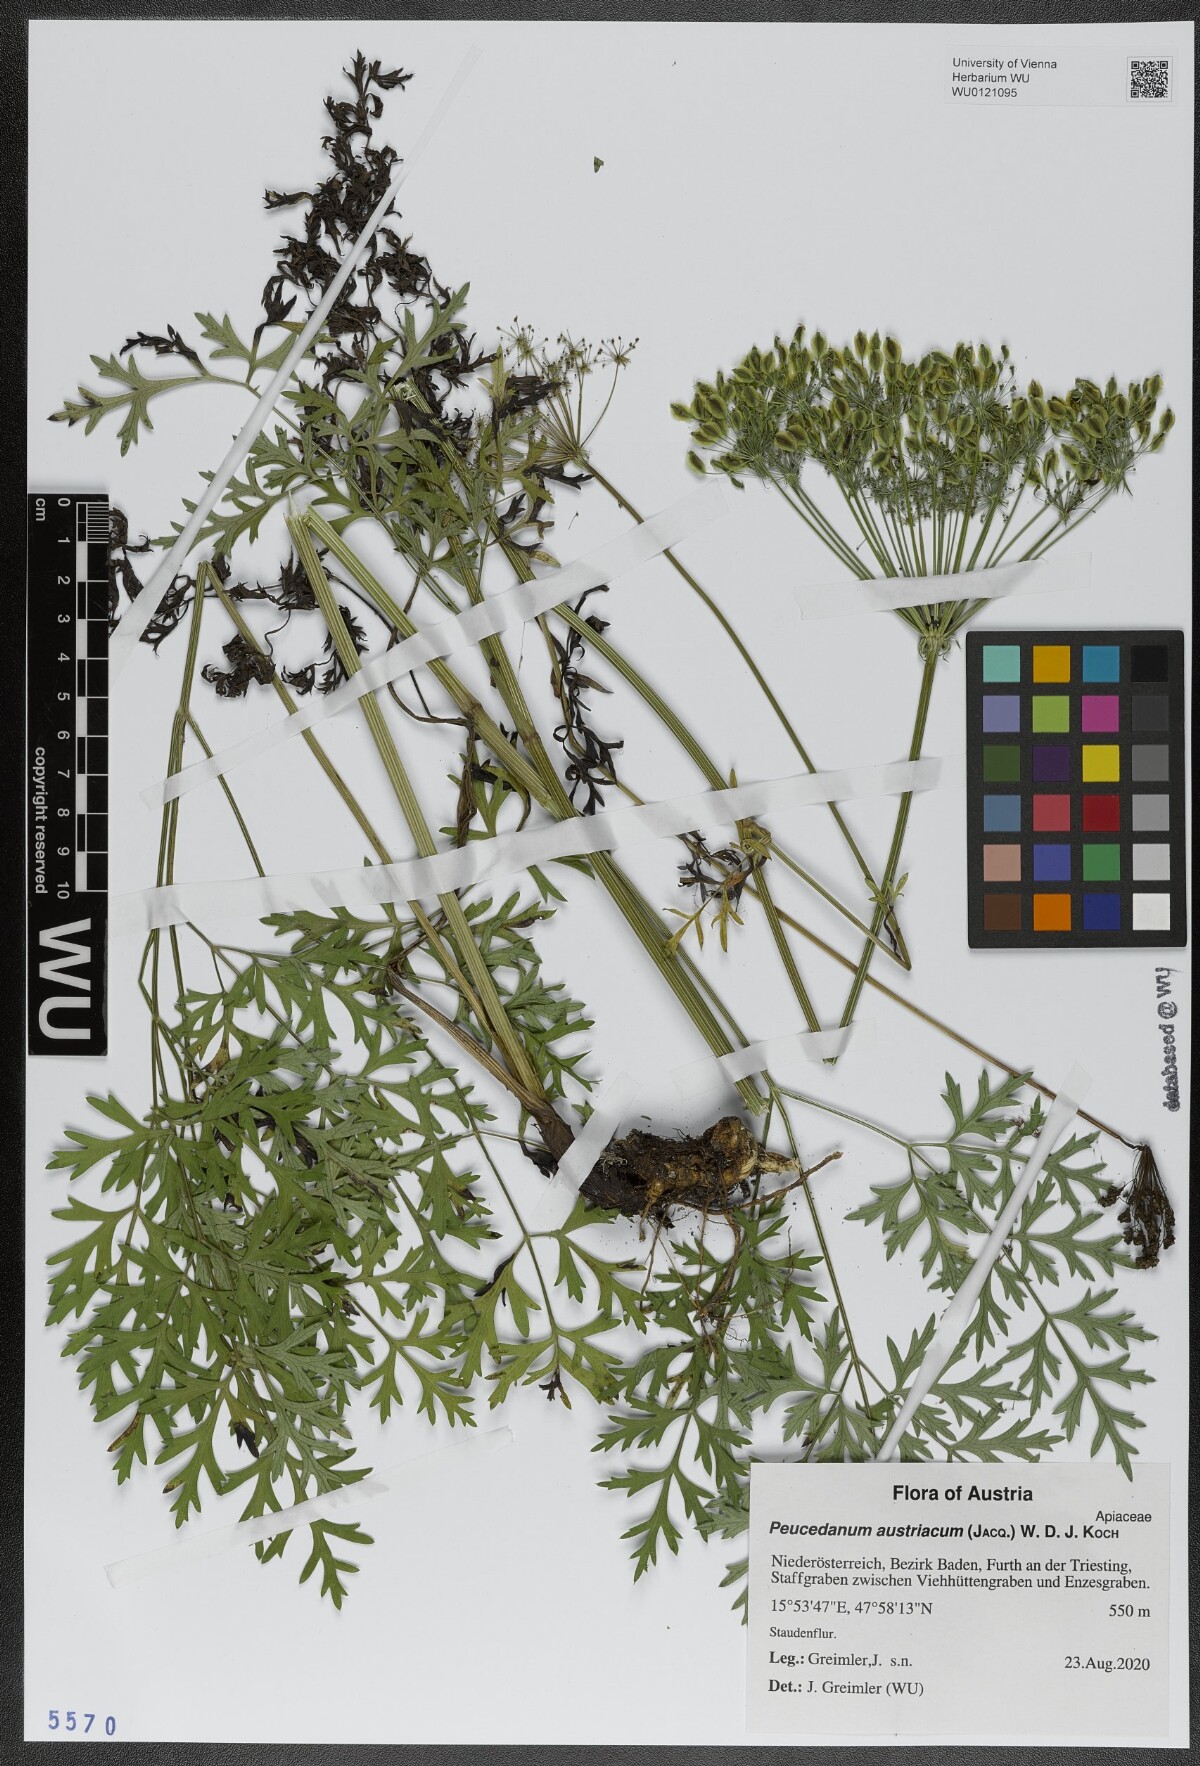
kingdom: Plantae
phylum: Tracheophyta
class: Magnoliopsida
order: Apiales
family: Apiaceae
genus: Peucedanum
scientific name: Peucedanum austriacum
